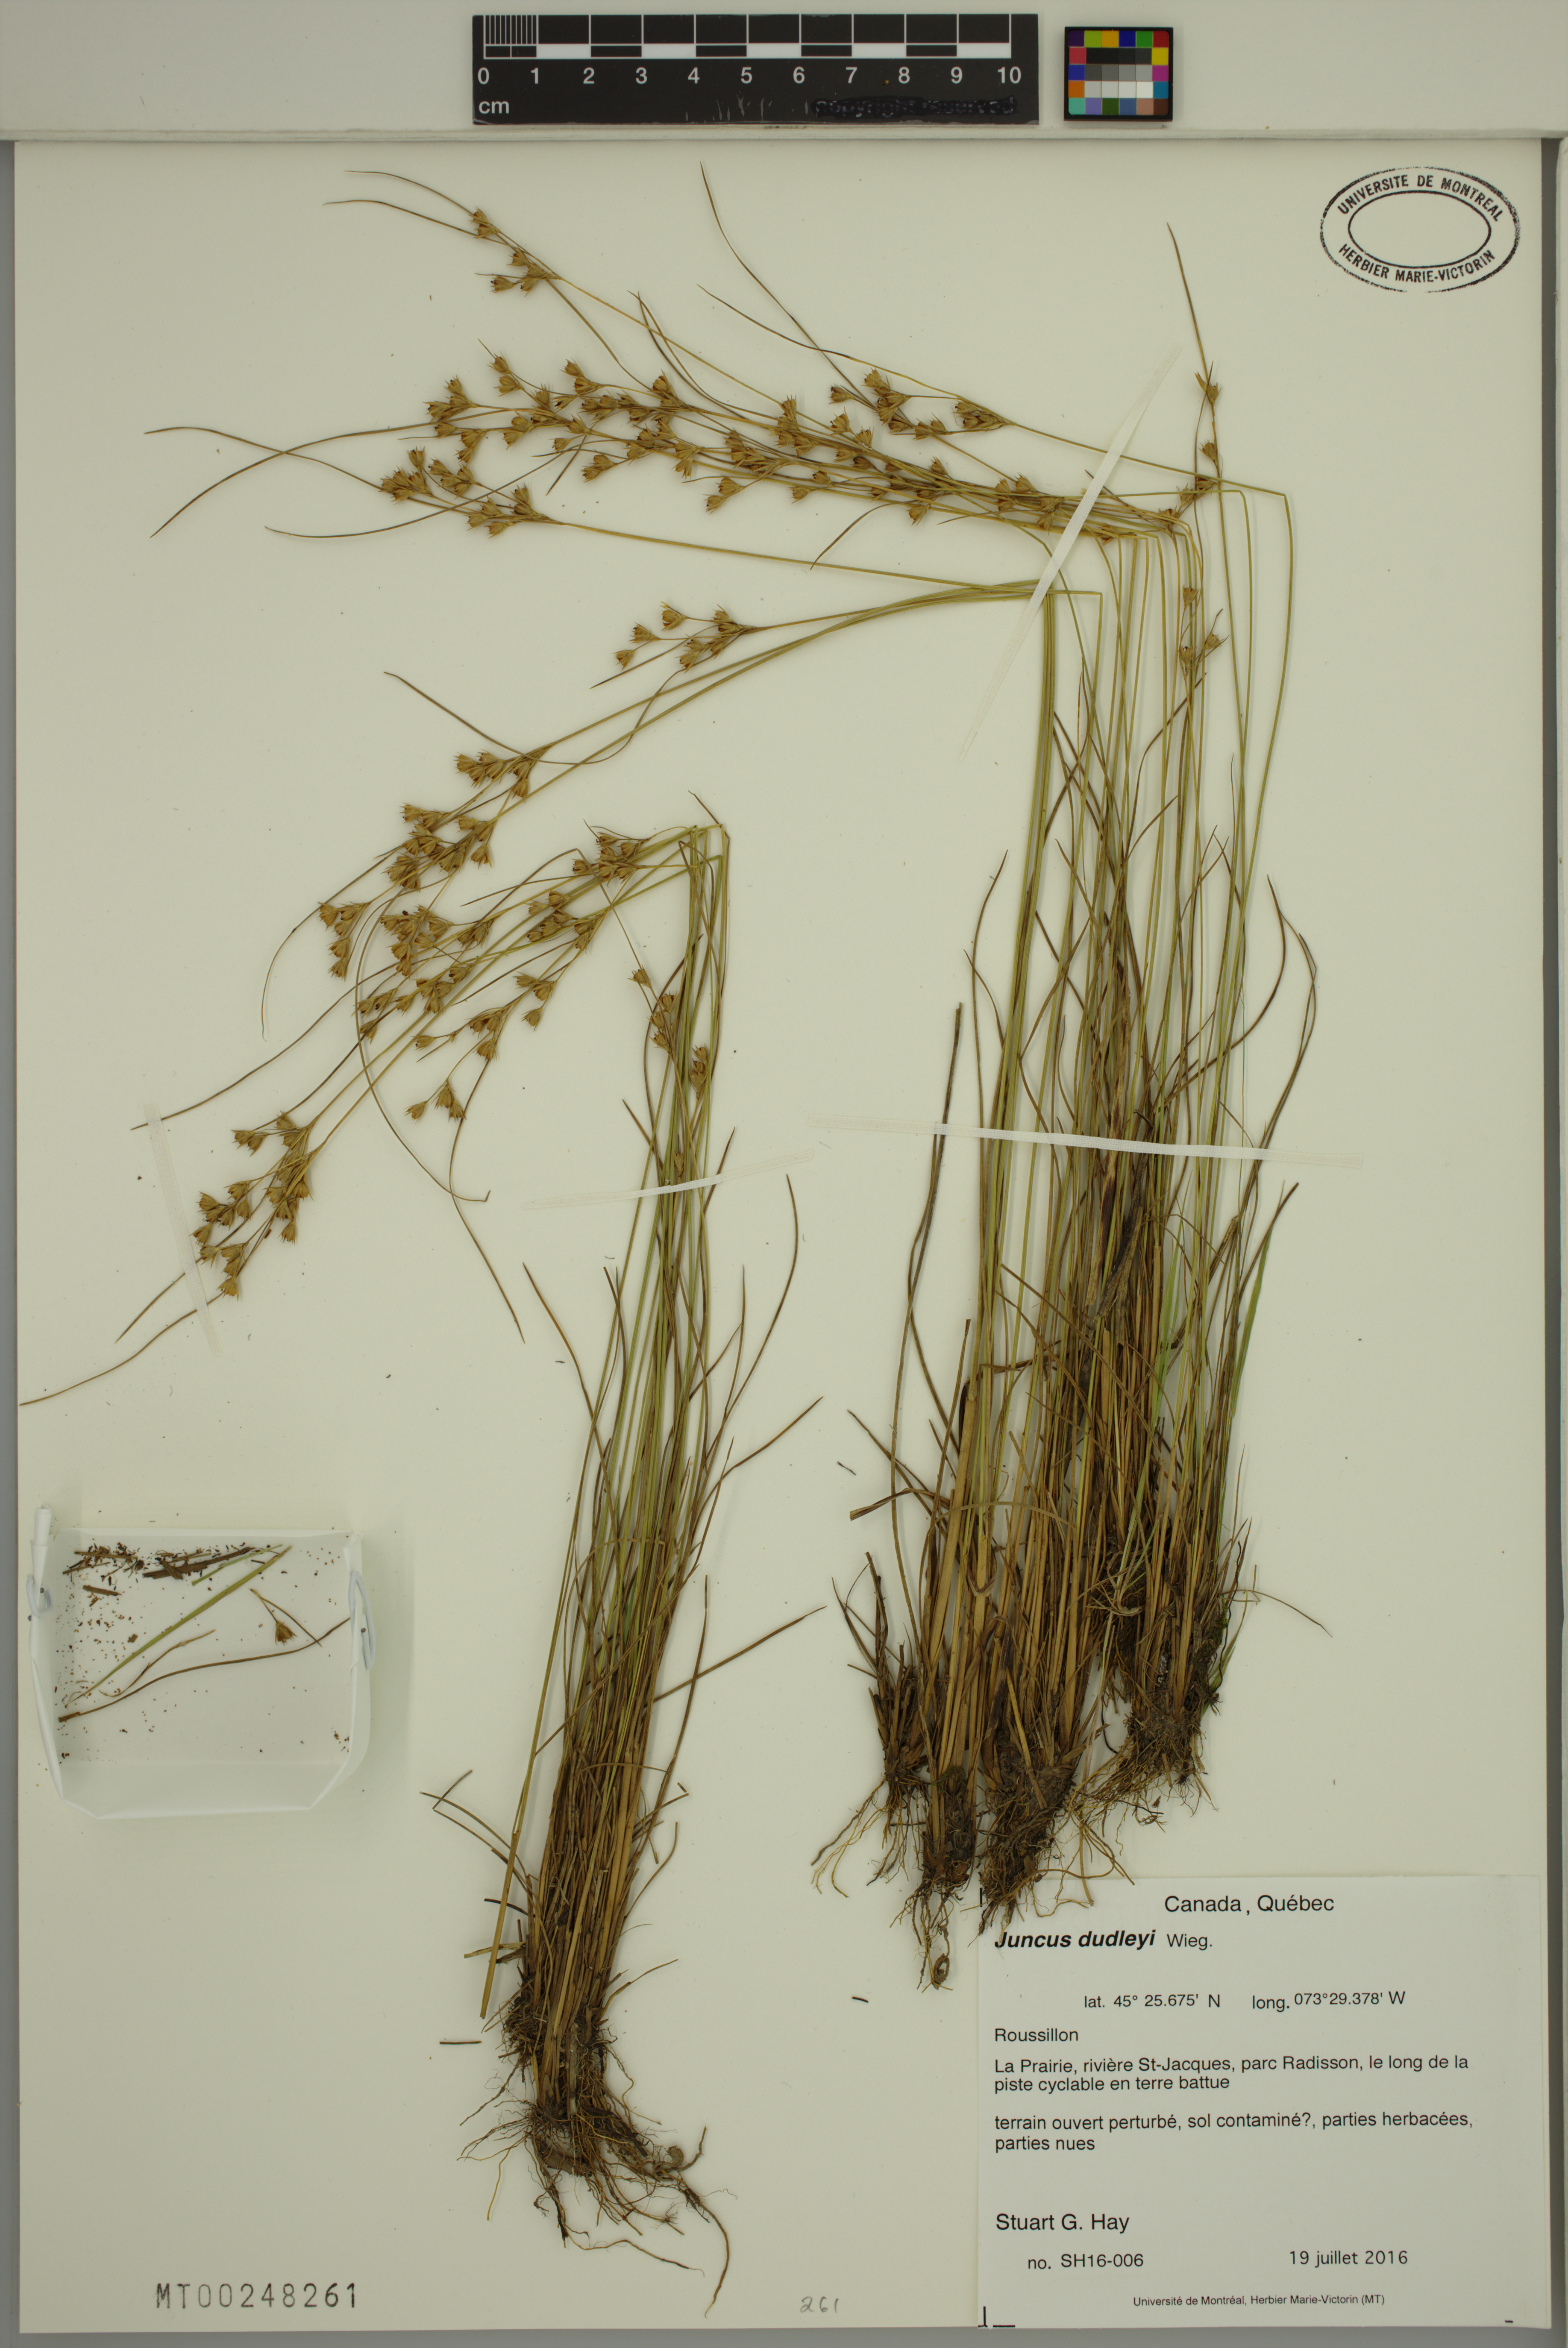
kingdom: Plantae
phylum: Tracheophyta
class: Liliopsida
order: Poales
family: Juncaceae
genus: Juncus
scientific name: Juncus dudleyi
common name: Dudley's rush
